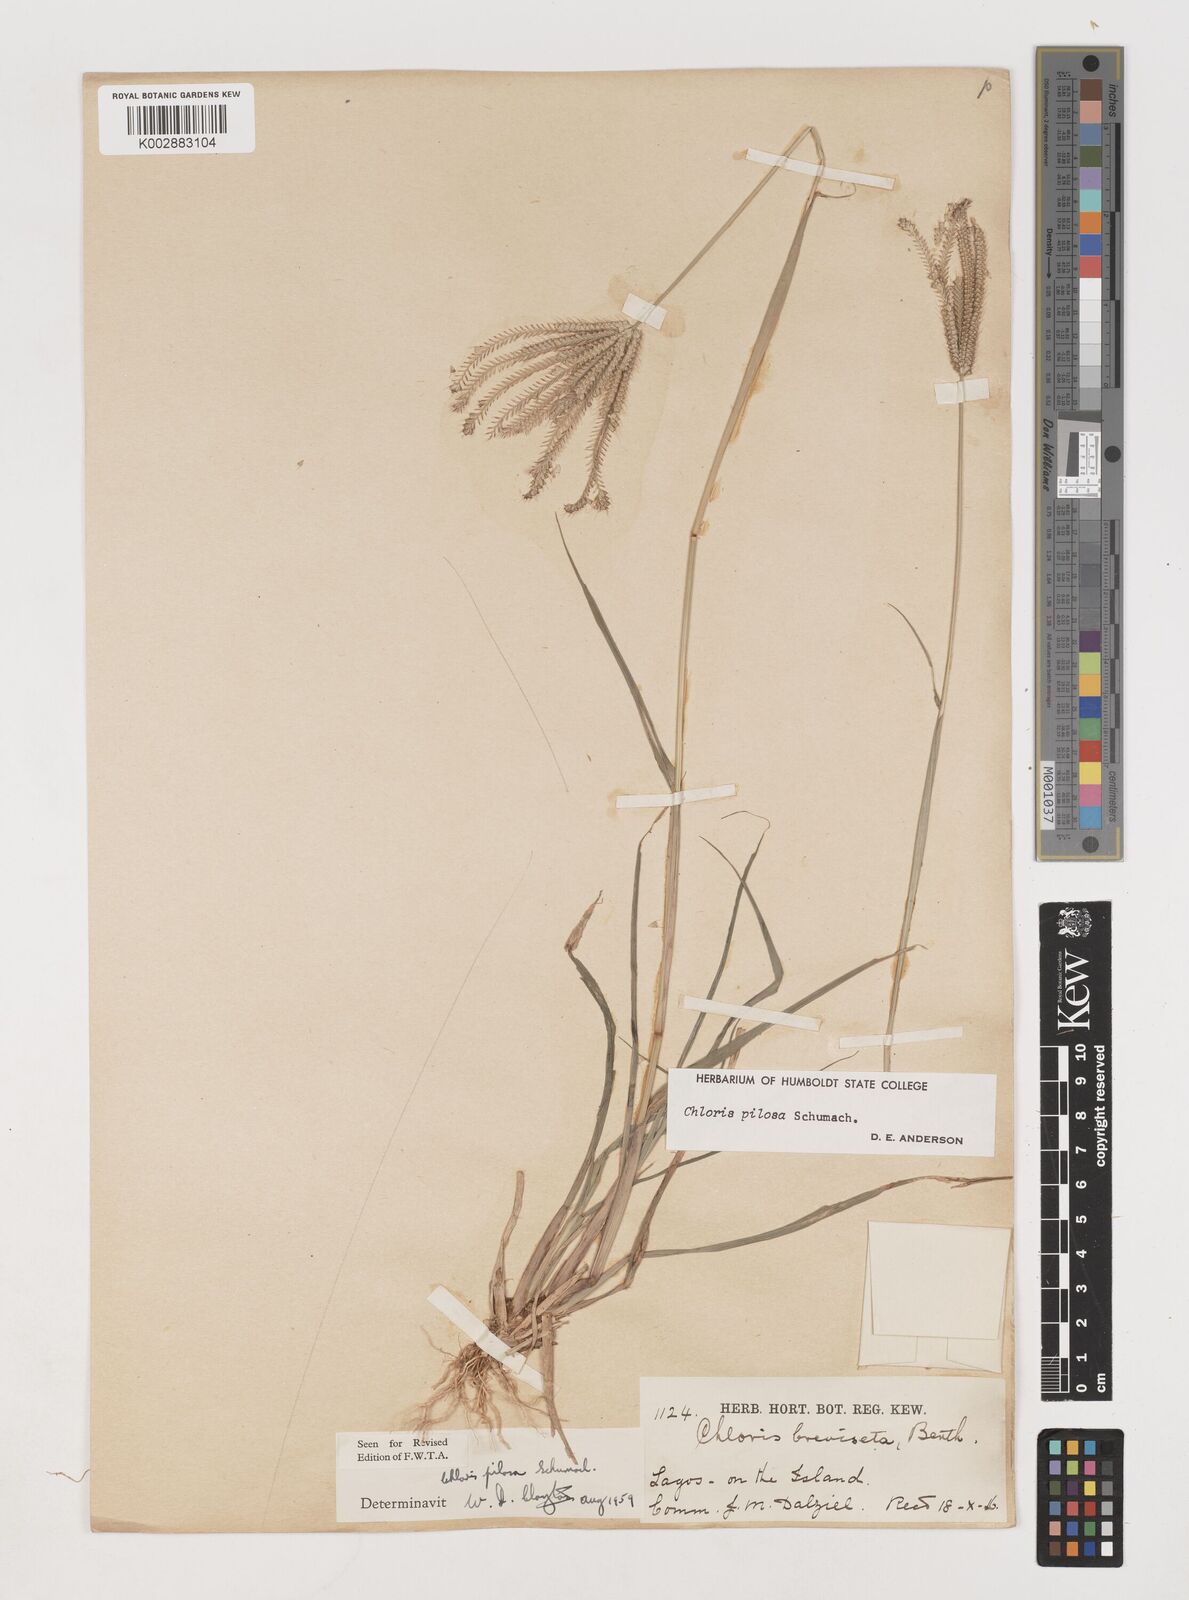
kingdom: Plantae
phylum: Tracheophyta
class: Liliopsida
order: Poales
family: Poaceae
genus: Chloris
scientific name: Chloris pilosa
